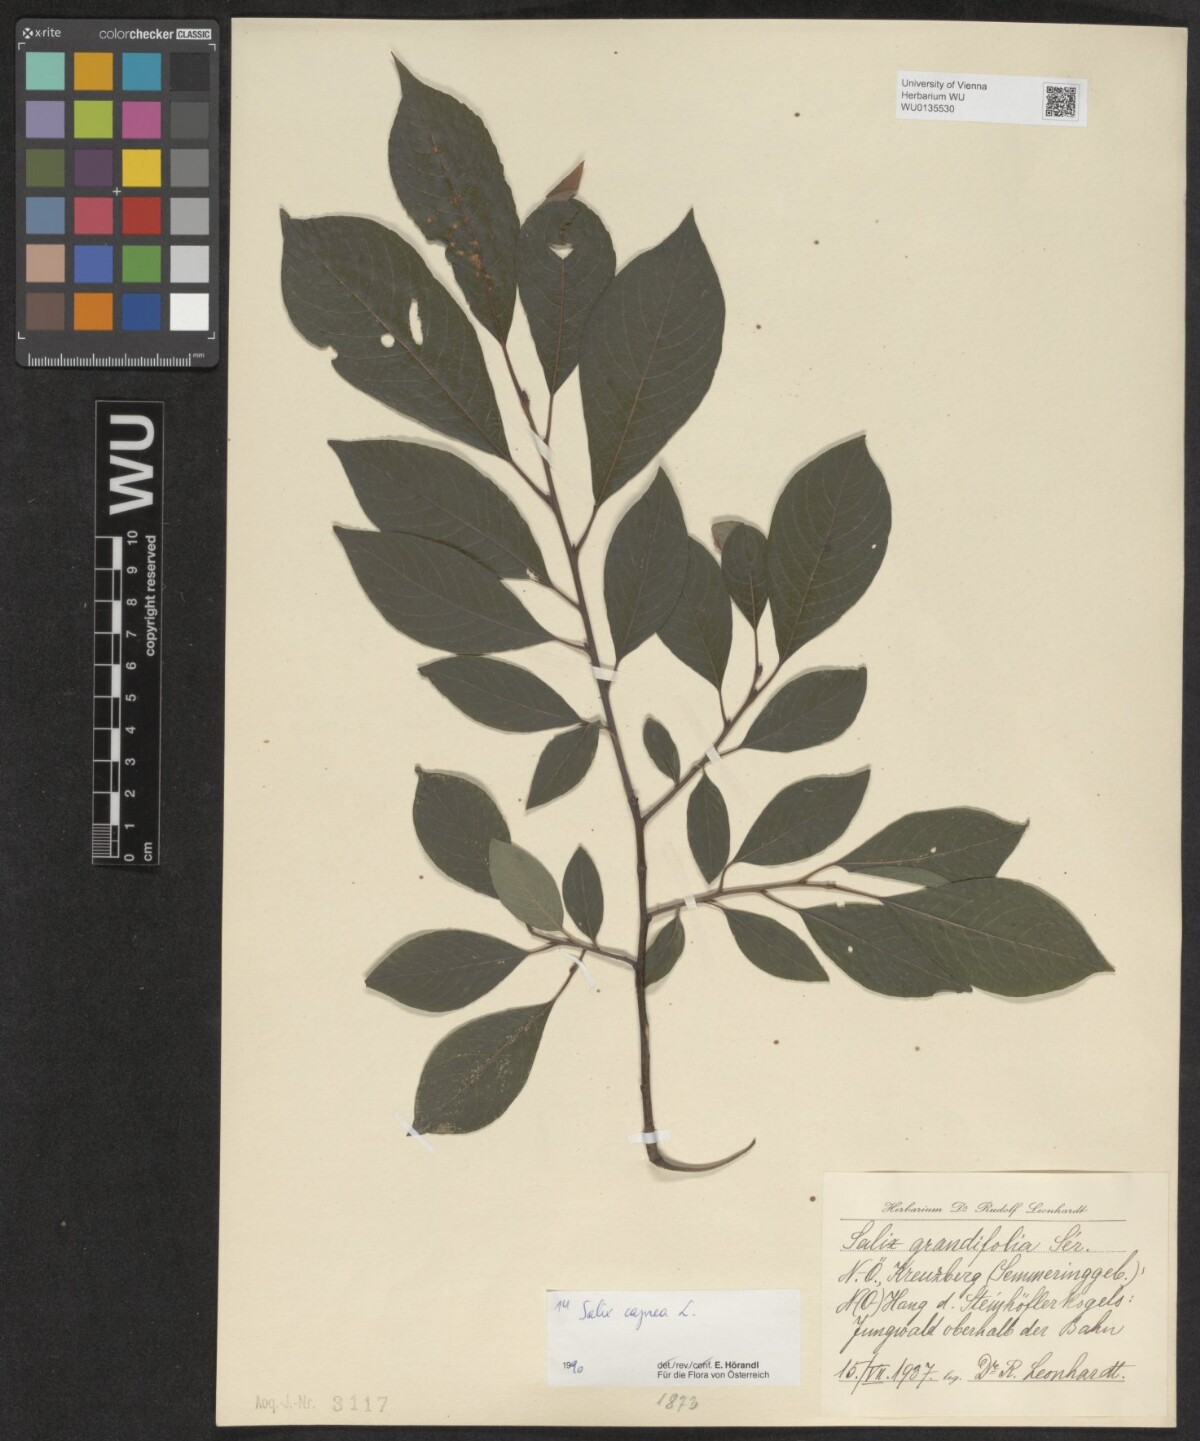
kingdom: Plantae
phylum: Tracheophyta
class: Magnoliopsida
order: Malpighiales
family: Salicaceae
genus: Salix
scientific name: Salix caprea
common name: Goat willow
